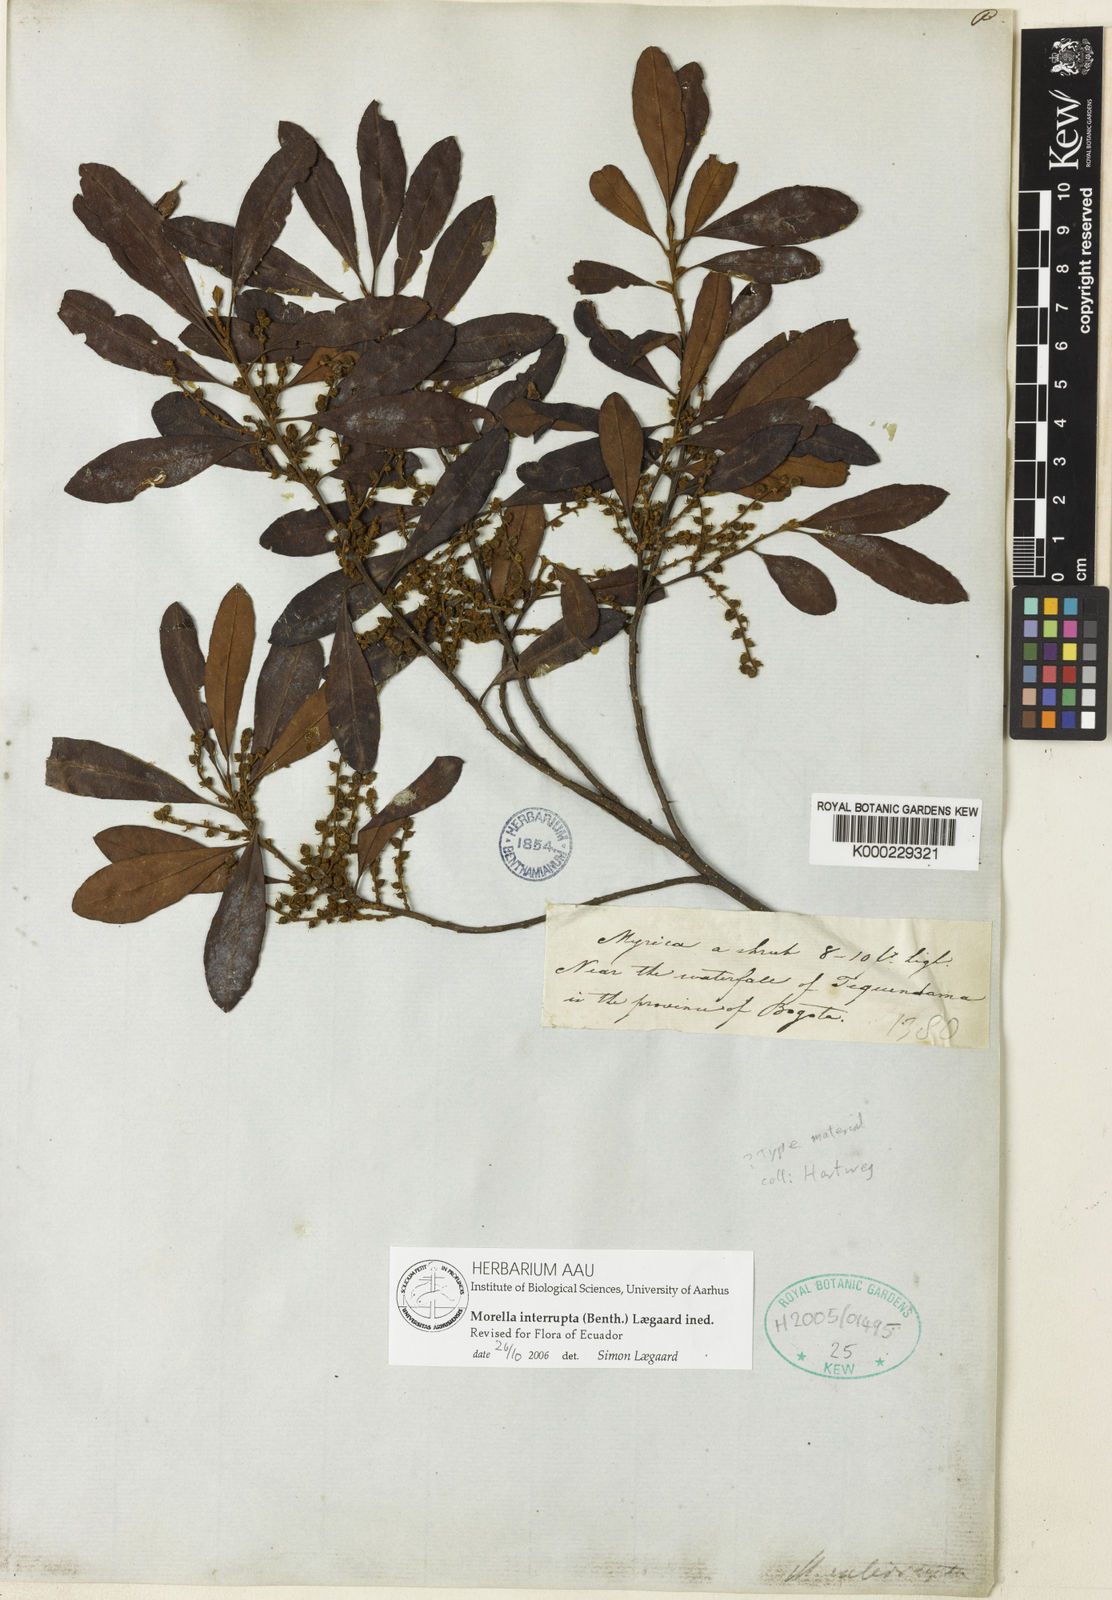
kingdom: Plantae
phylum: Tracheophyta
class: Magnoliopsida
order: Fagales
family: Myricaceae
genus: Morella
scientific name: Morella interrupta
